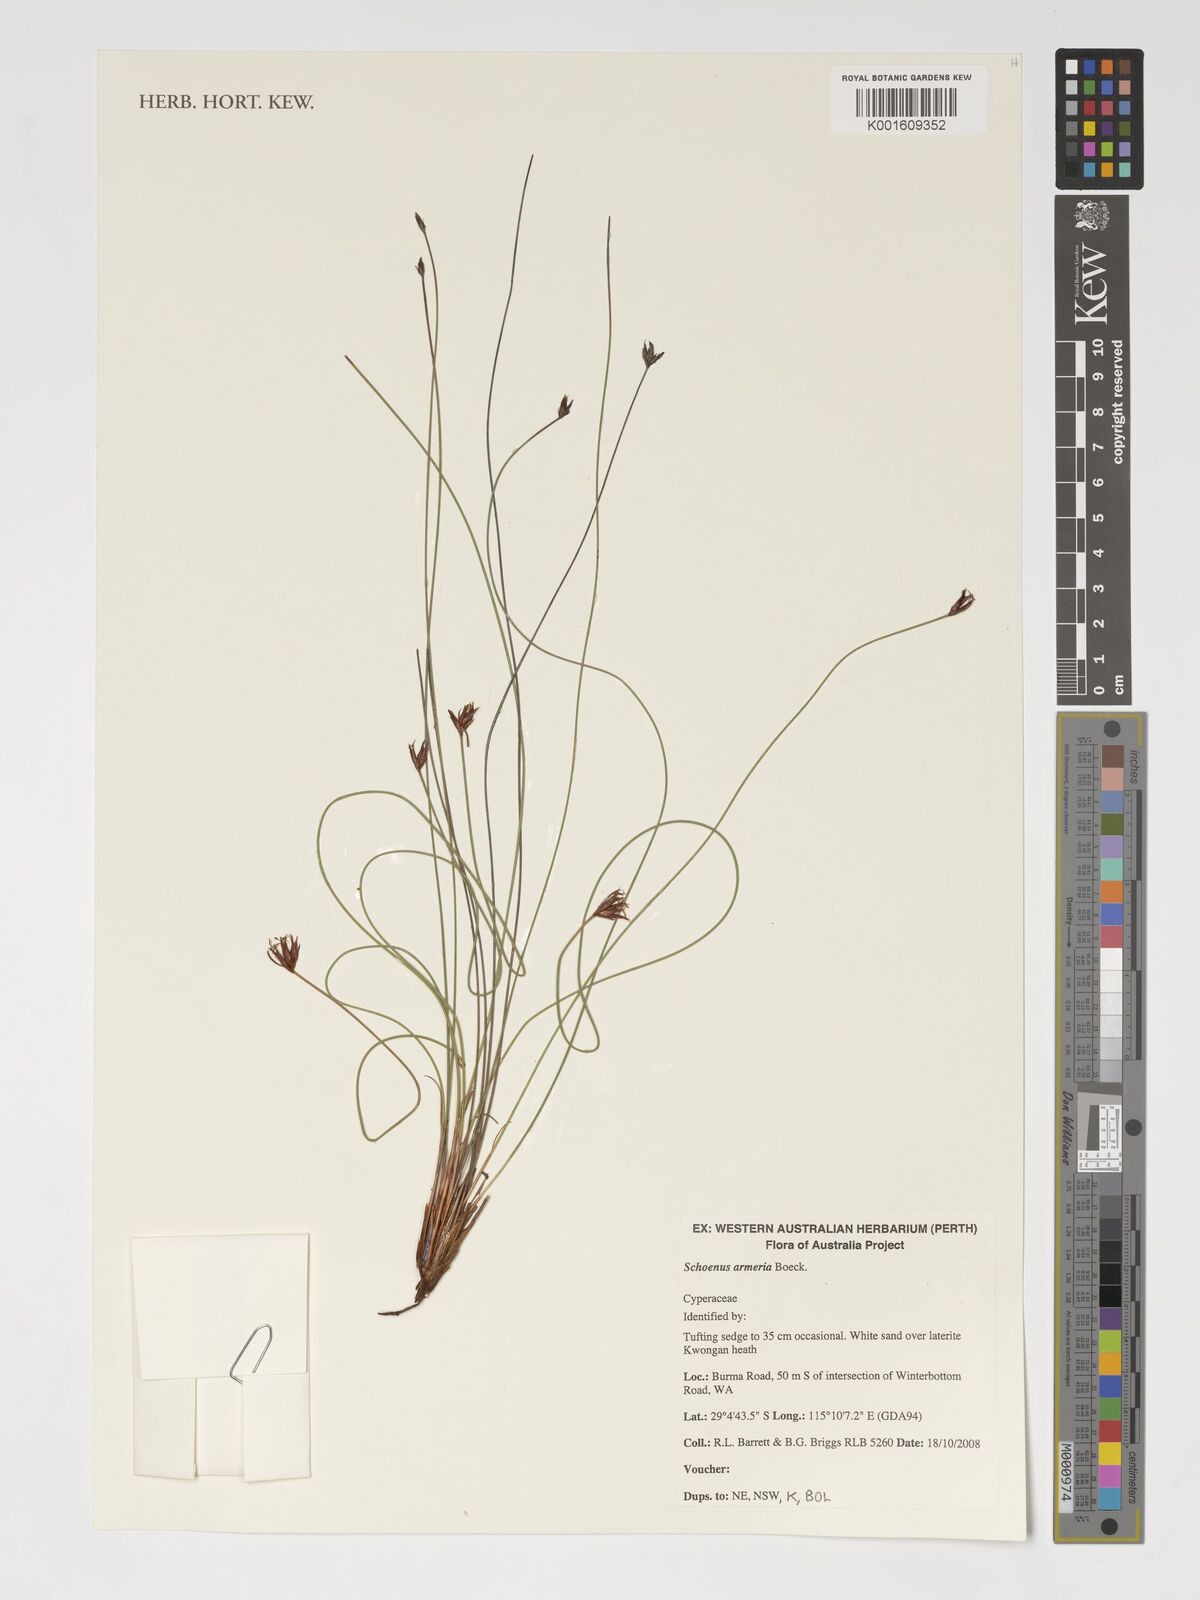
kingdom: Plantae
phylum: Tracheophyta
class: Liliopsida
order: Poales
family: Cyperaceae
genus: Schoenus
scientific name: Schoenus armeria
